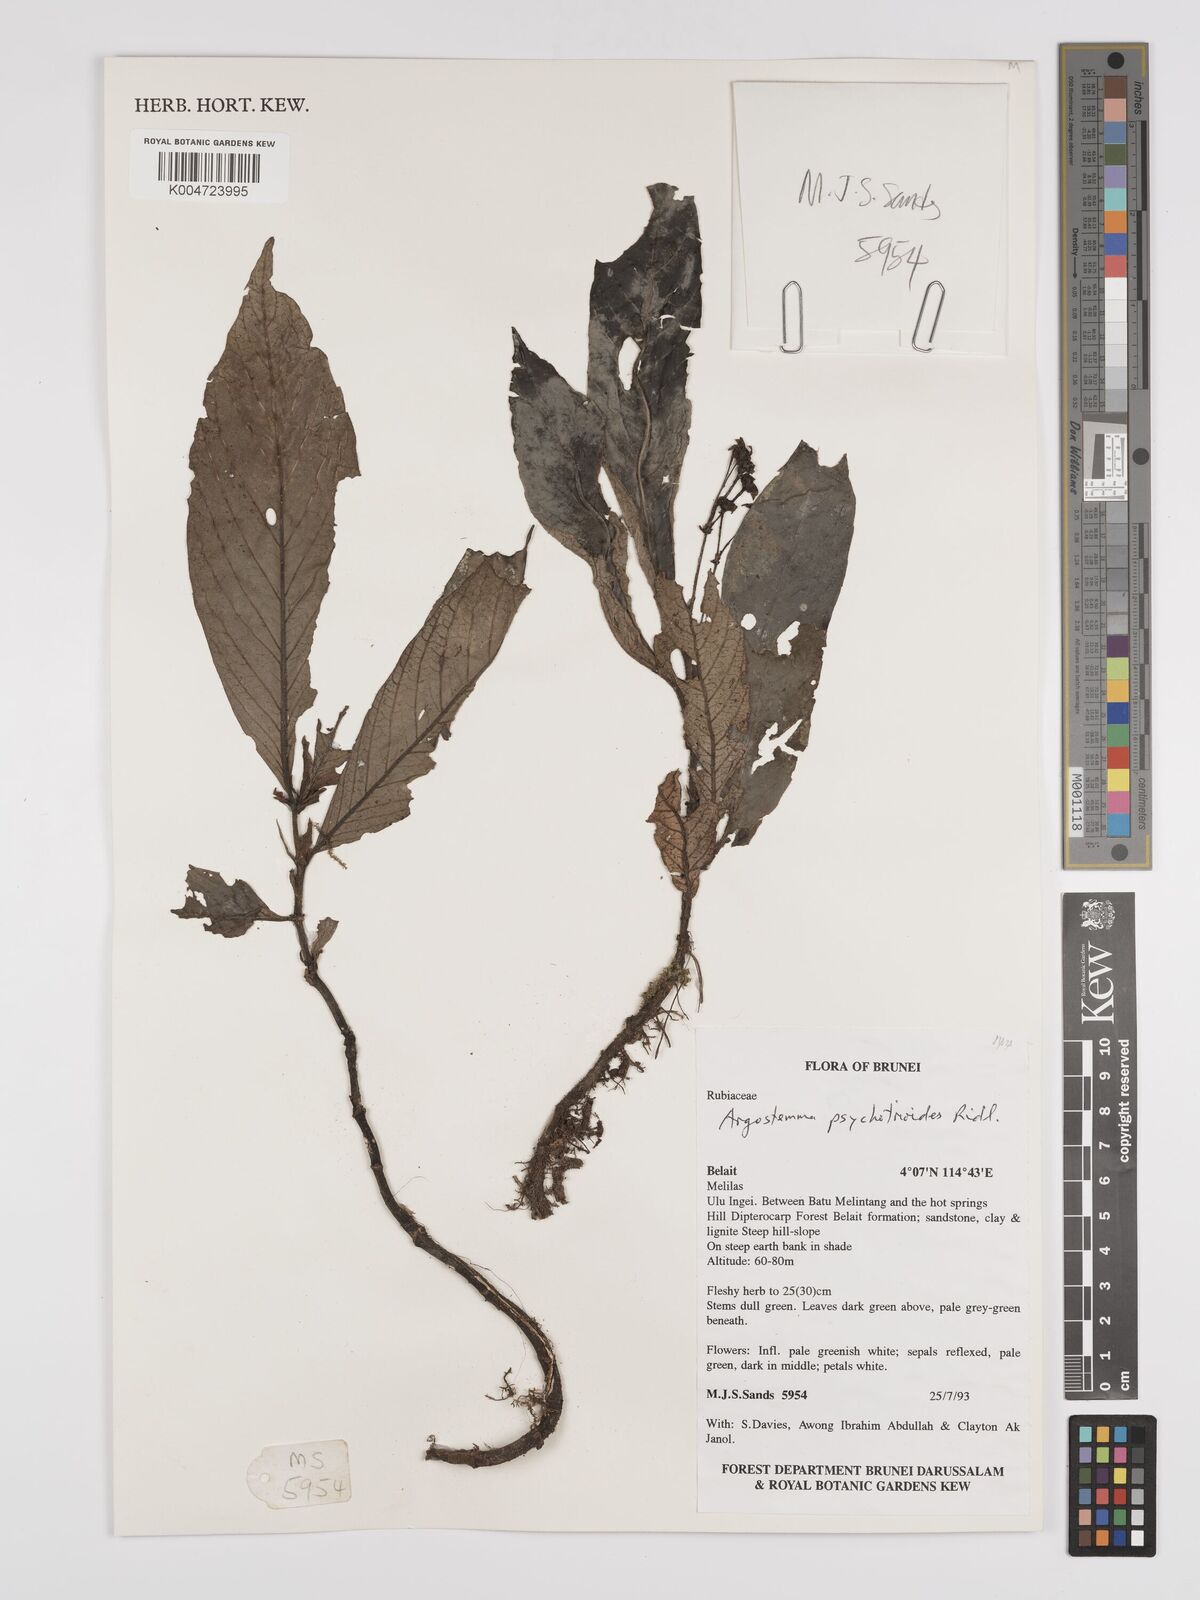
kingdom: Plantae
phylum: Tracheophyta
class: Magnoliopsida
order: Gentianales
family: Rubiaceae
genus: Argostemma
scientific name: Argostemma psychotrioides
